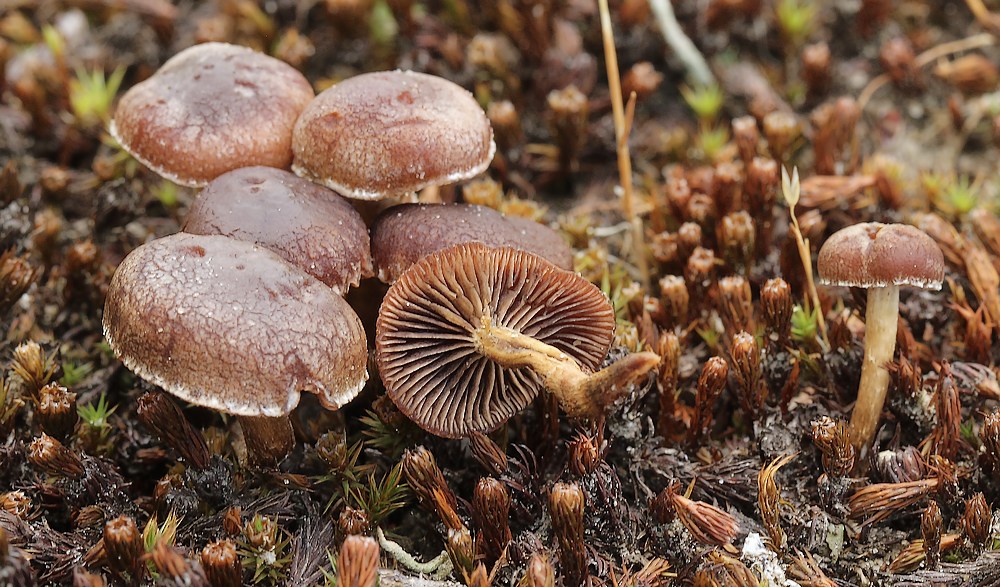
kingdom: Fungi
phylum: Basidiomycota
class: Agaricomycetes
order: Agaricales
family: Strophariaceae
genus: Deconica
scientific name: Deconica
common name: stråhat
